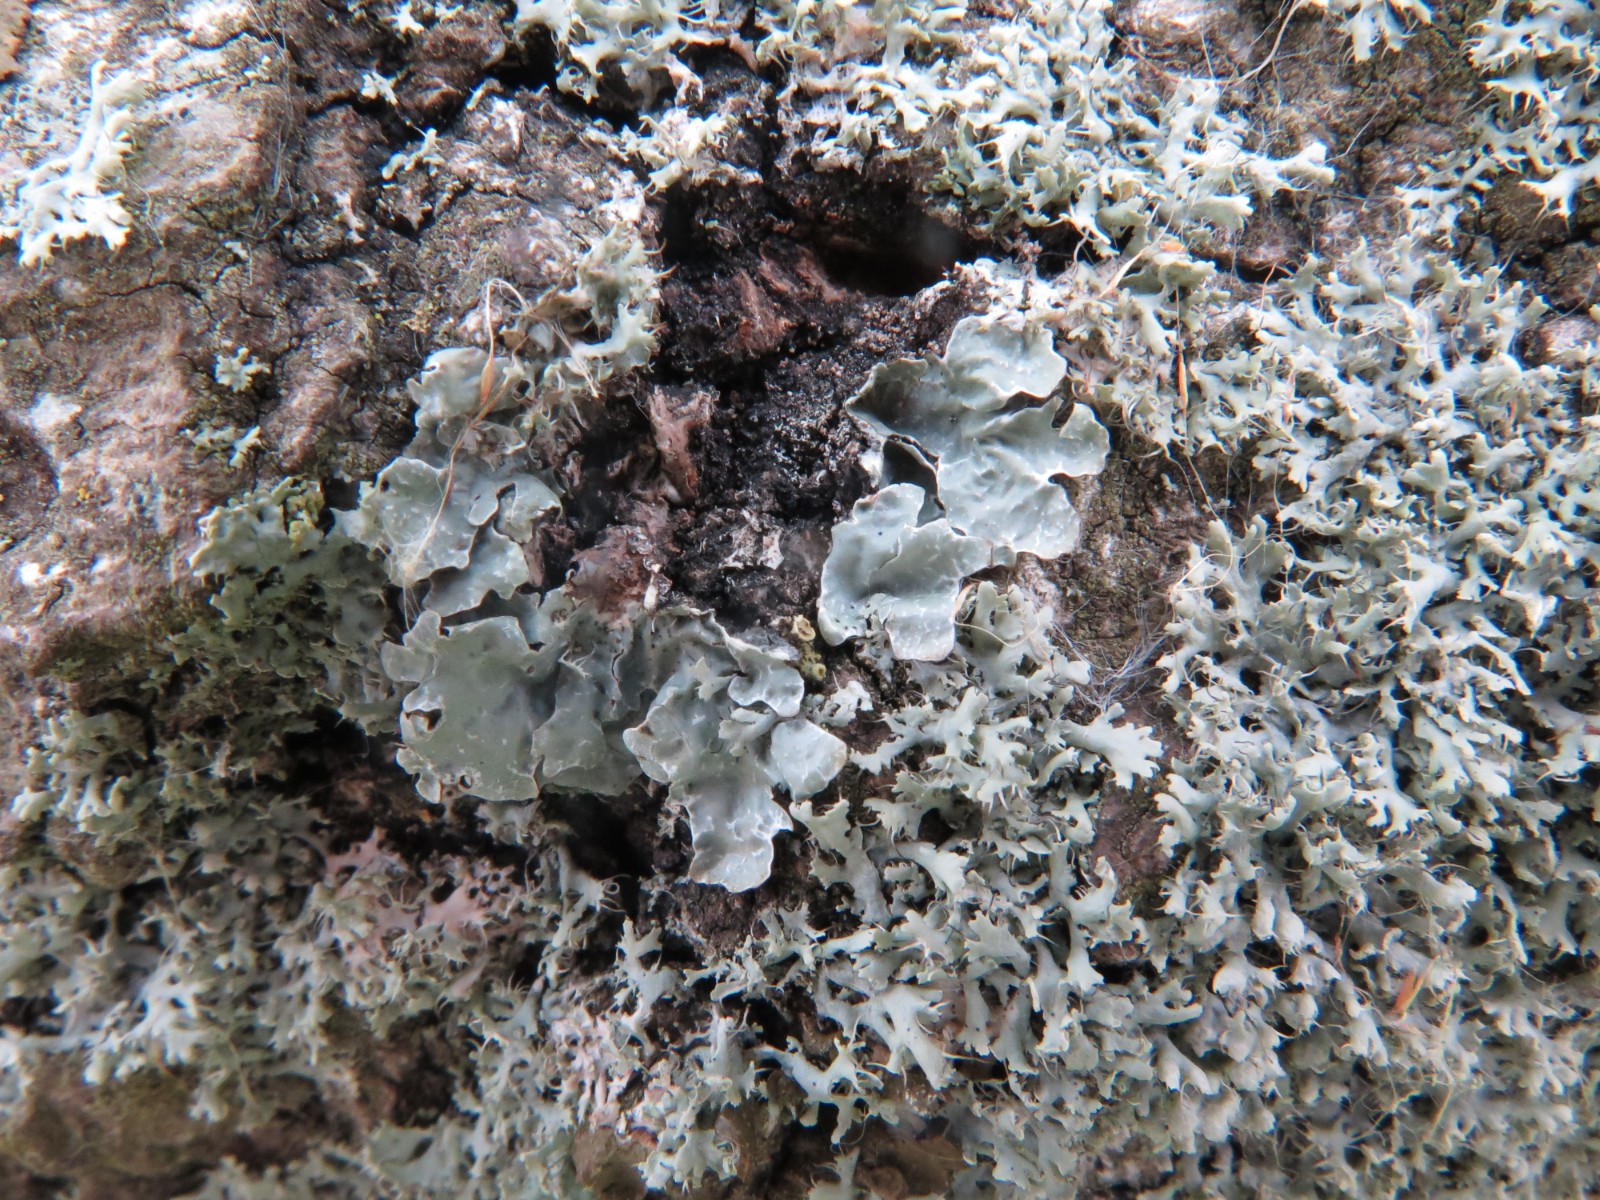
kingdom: Fungi
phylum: Ascomycota
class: Lecanoromycetes
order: Lecanorales
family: Parmeliaceae
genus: Parmelia
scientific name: Parmelia sulcata
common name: rynket skållav
